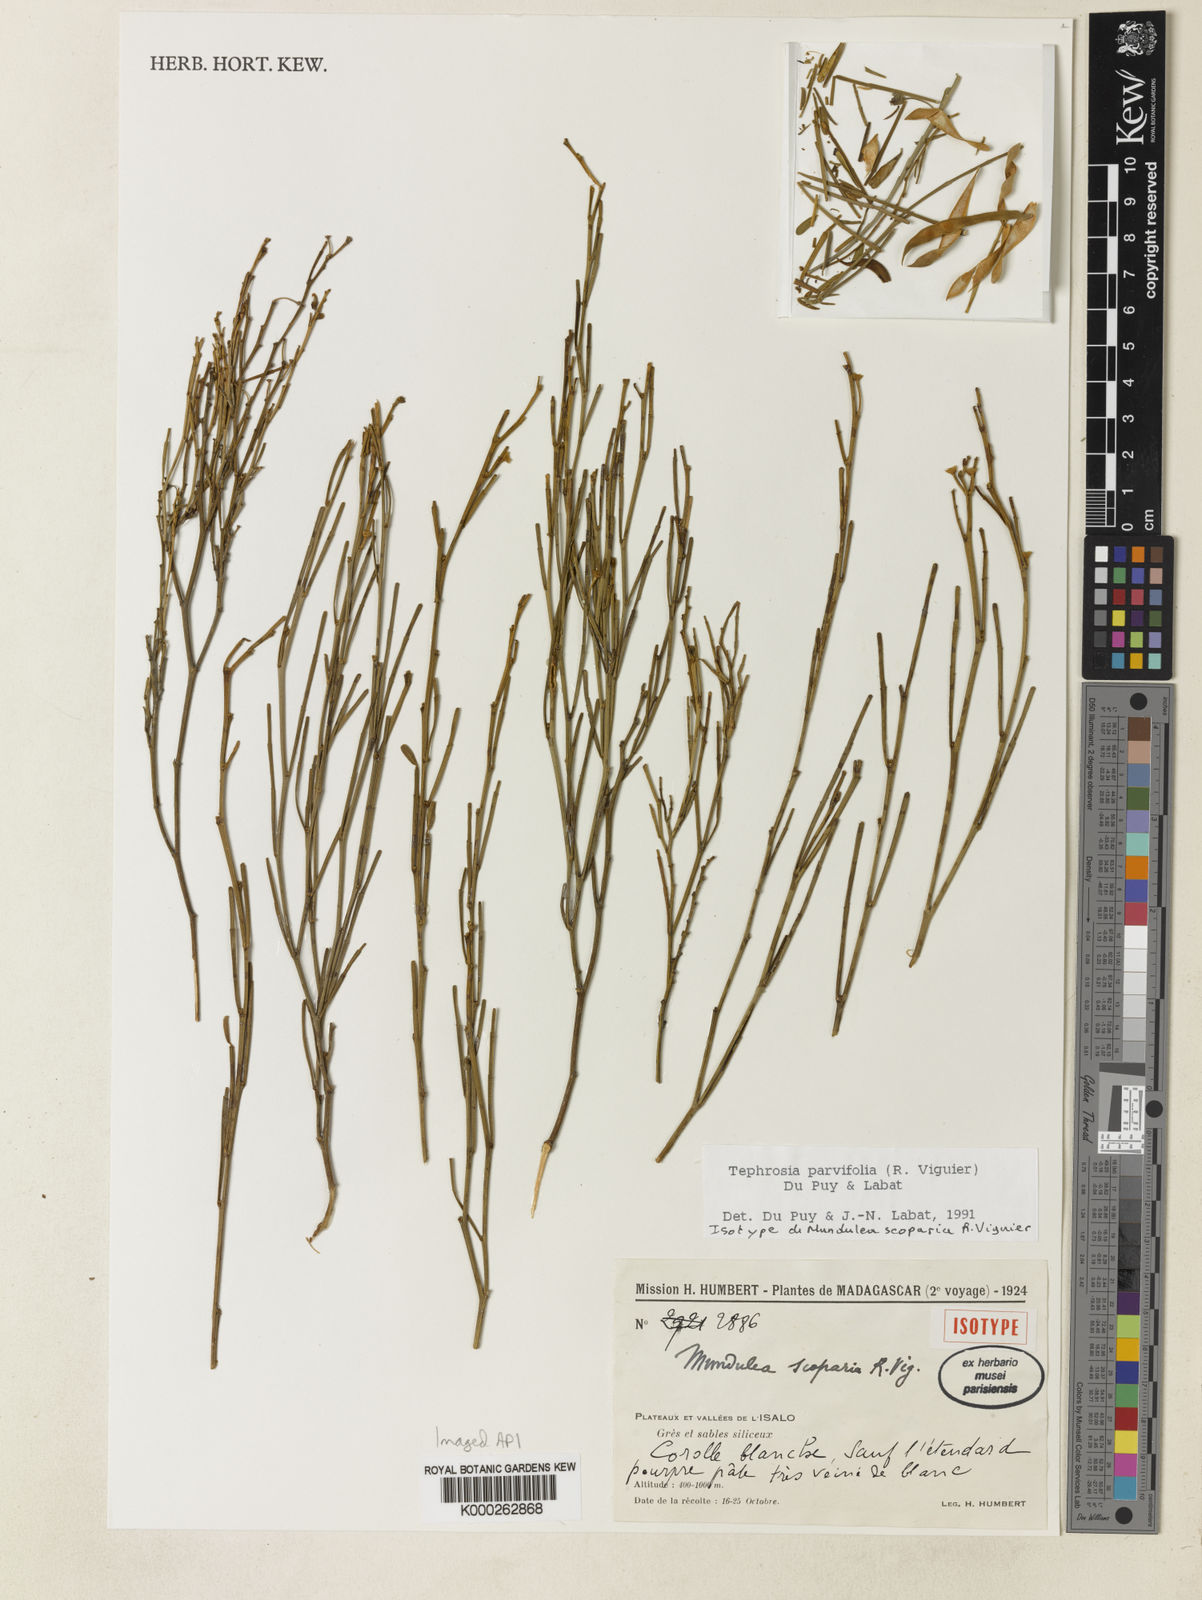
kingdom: Plantae
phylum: Tracheophyta
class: Magnoliopsida
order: Fabales
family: Fabaceae
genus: Tephrosia
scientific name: Tephrosia parvifolia
